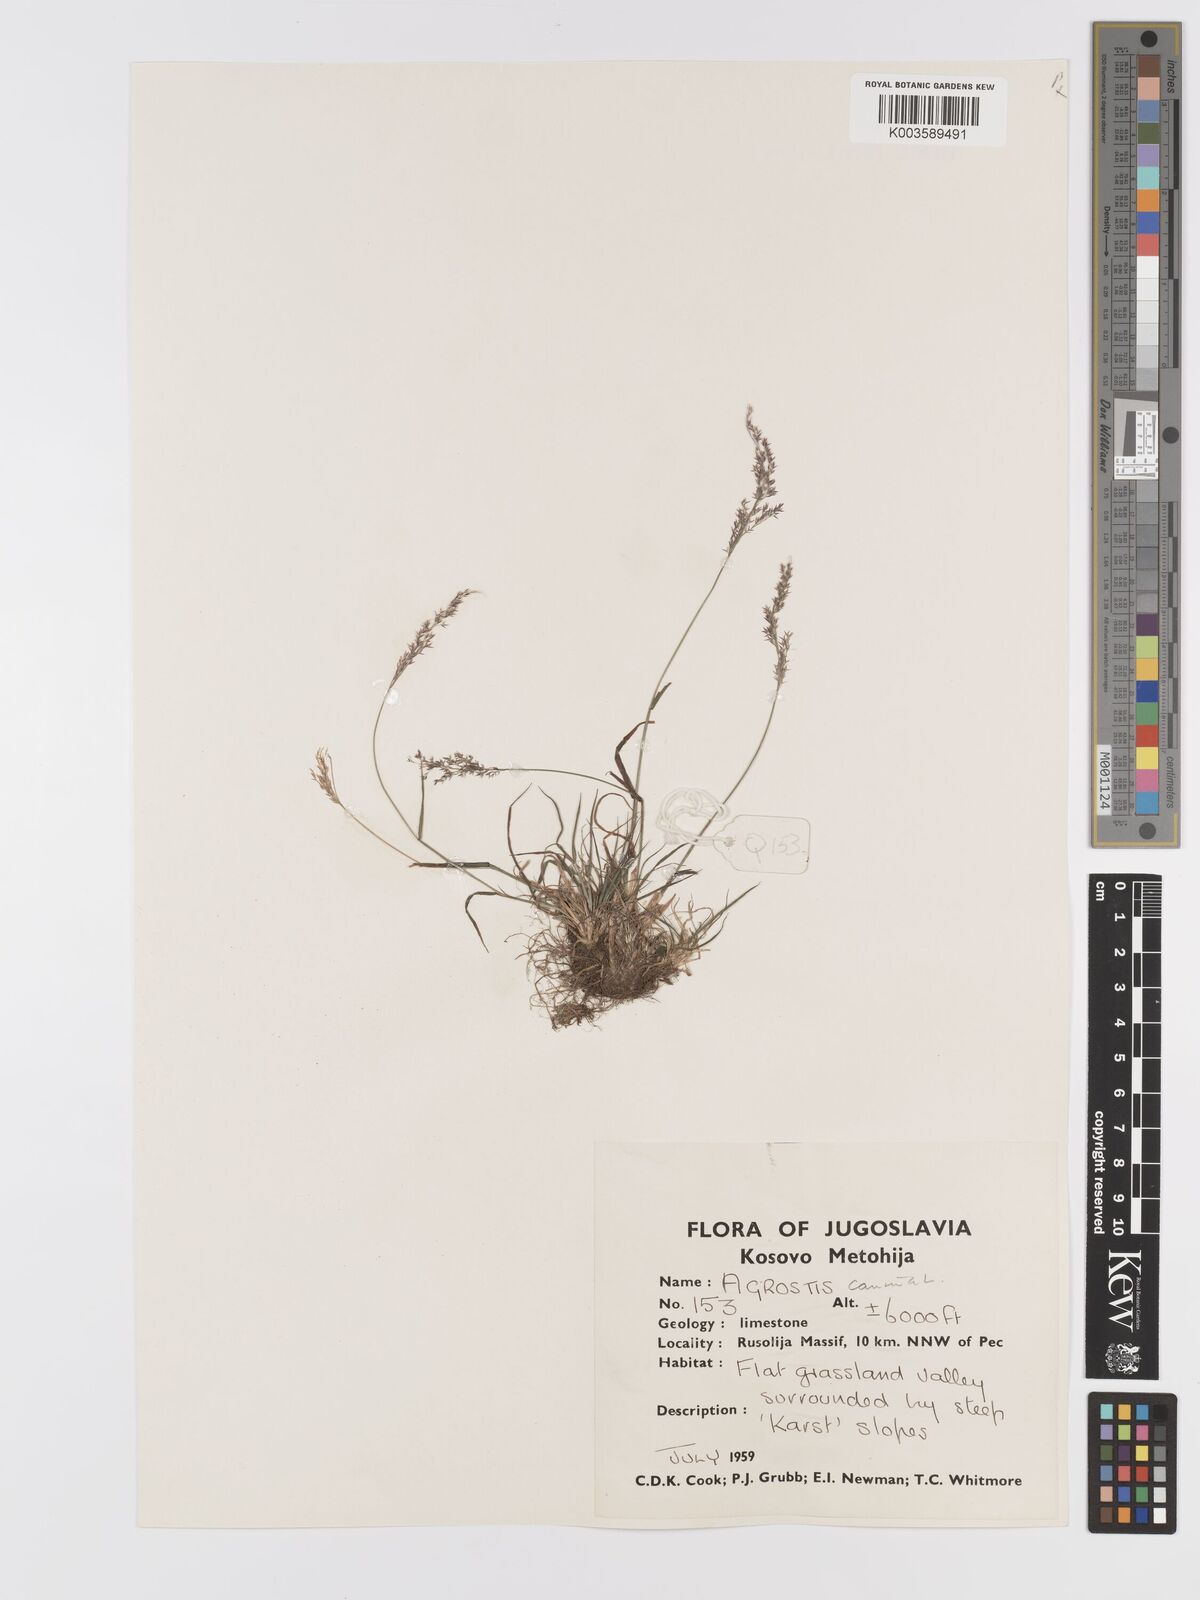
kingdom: Plantae
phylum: Tracheophyta
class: Liliopsida
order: Poales
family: Poaceae
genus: Agrostis
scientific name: Agrostis canina
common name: Velvet bent
